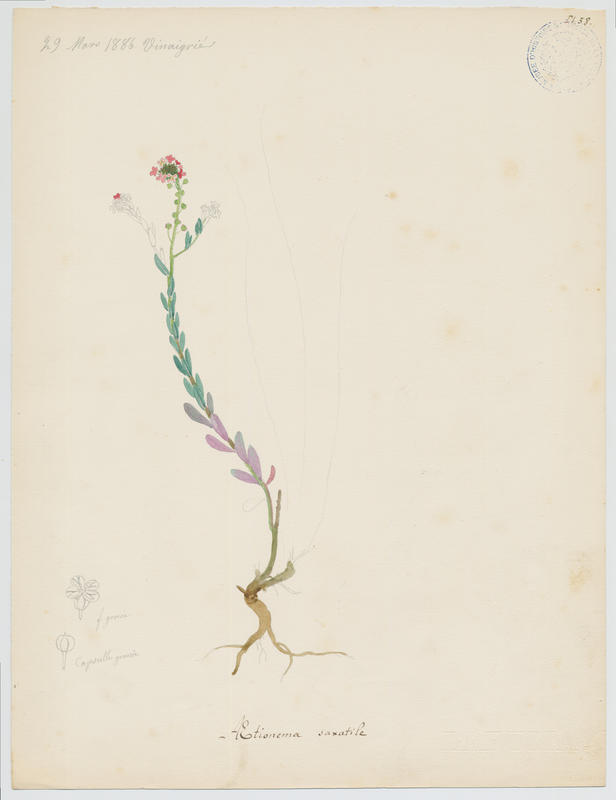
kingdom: Plantae
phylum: Tracheophyta
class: Magnoliopsida
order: Brassicales
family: Brassicaceae
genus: Aethionema
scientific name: Aethionema saxatile
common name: Burnt candytuft
